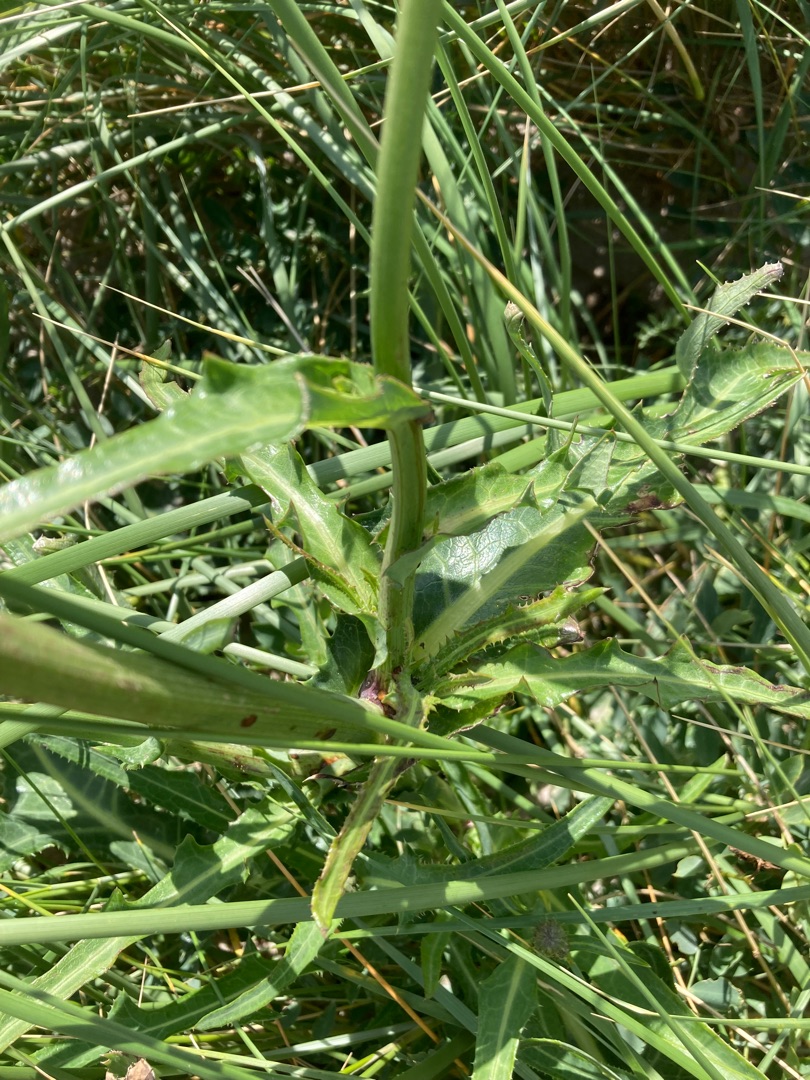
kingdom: Plantae
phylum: Tracheophyta
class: Magnoliopsida
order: Asterales
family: Asteraceae
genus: Sonchus
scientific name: Sonchus arvensis
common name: Ager-svinemælk
